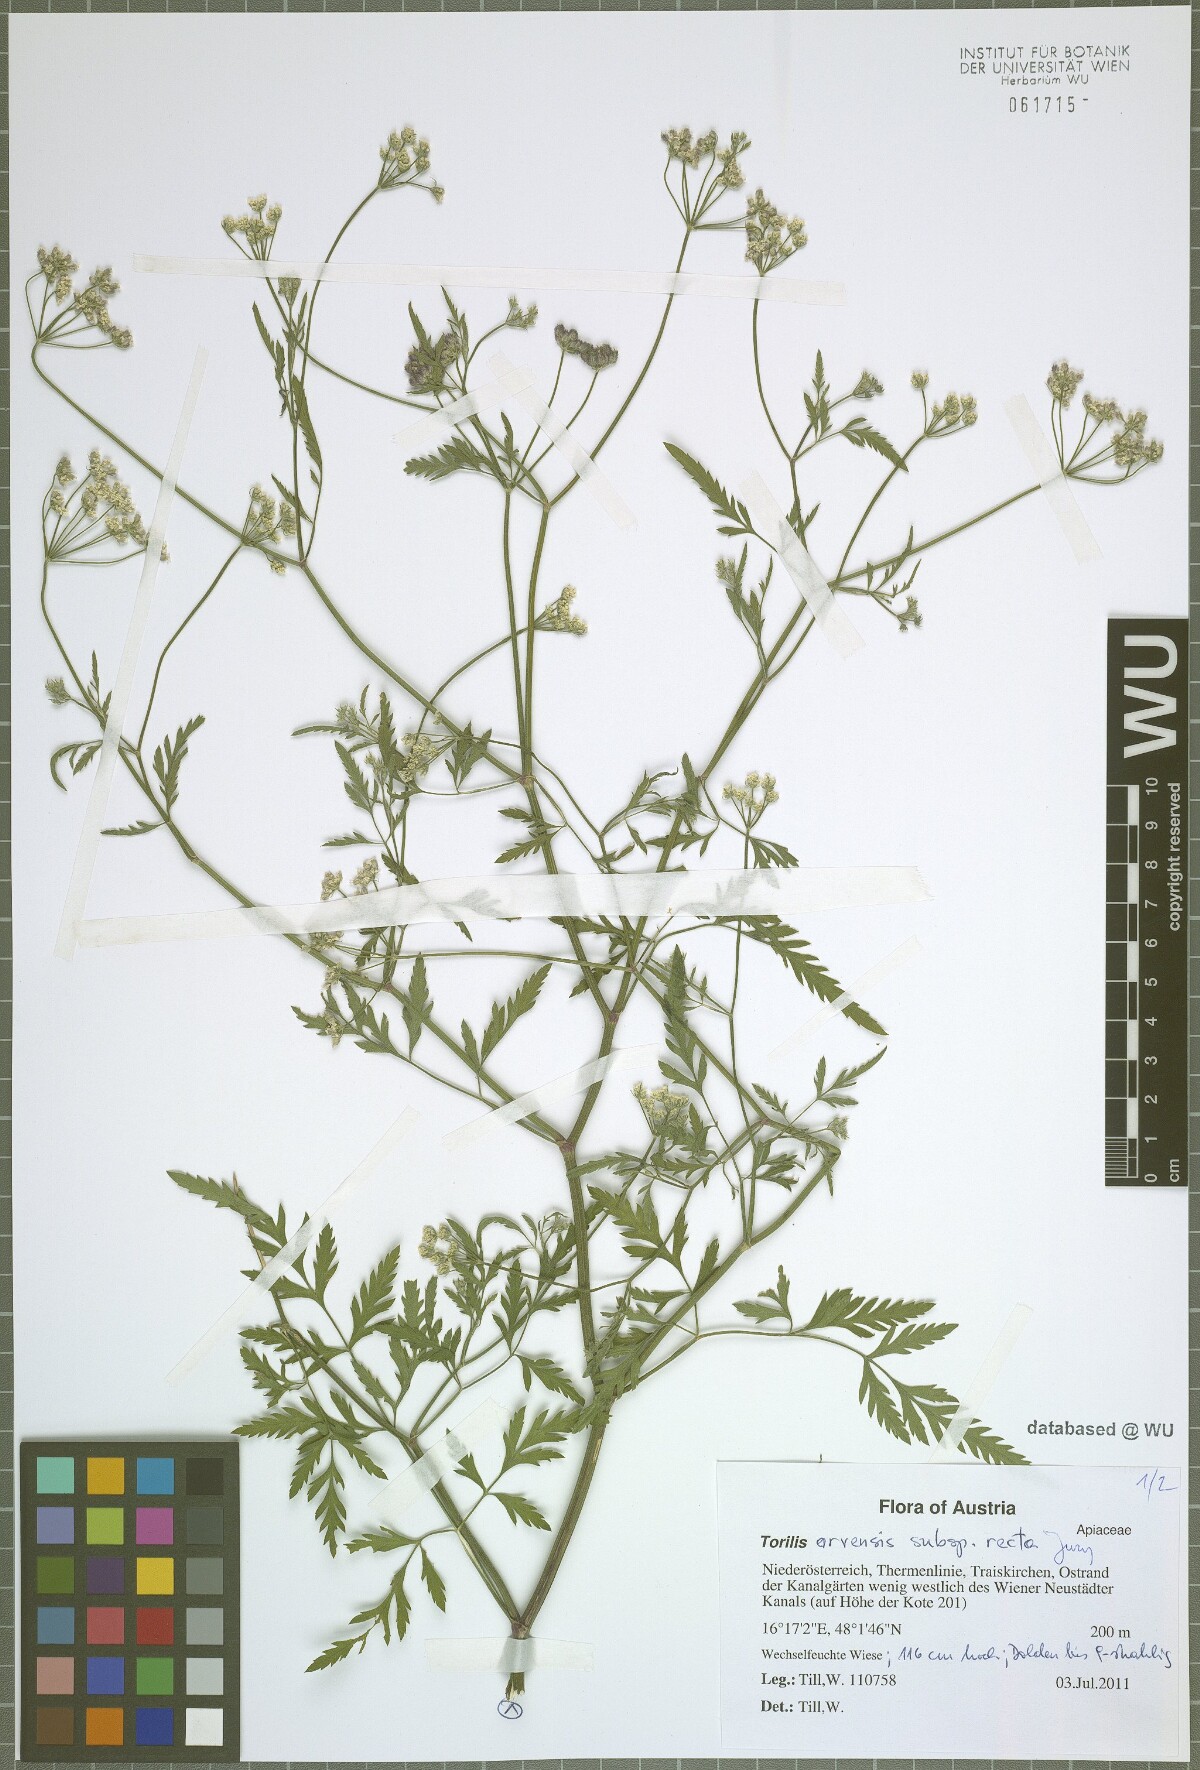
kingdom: Plantae
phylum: Tracheophyta
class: Magnoliopsida
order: Apiales
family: Apiaceae
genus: Torilis
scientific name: Torilis arvensis
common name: Spreading hedge-parsley
